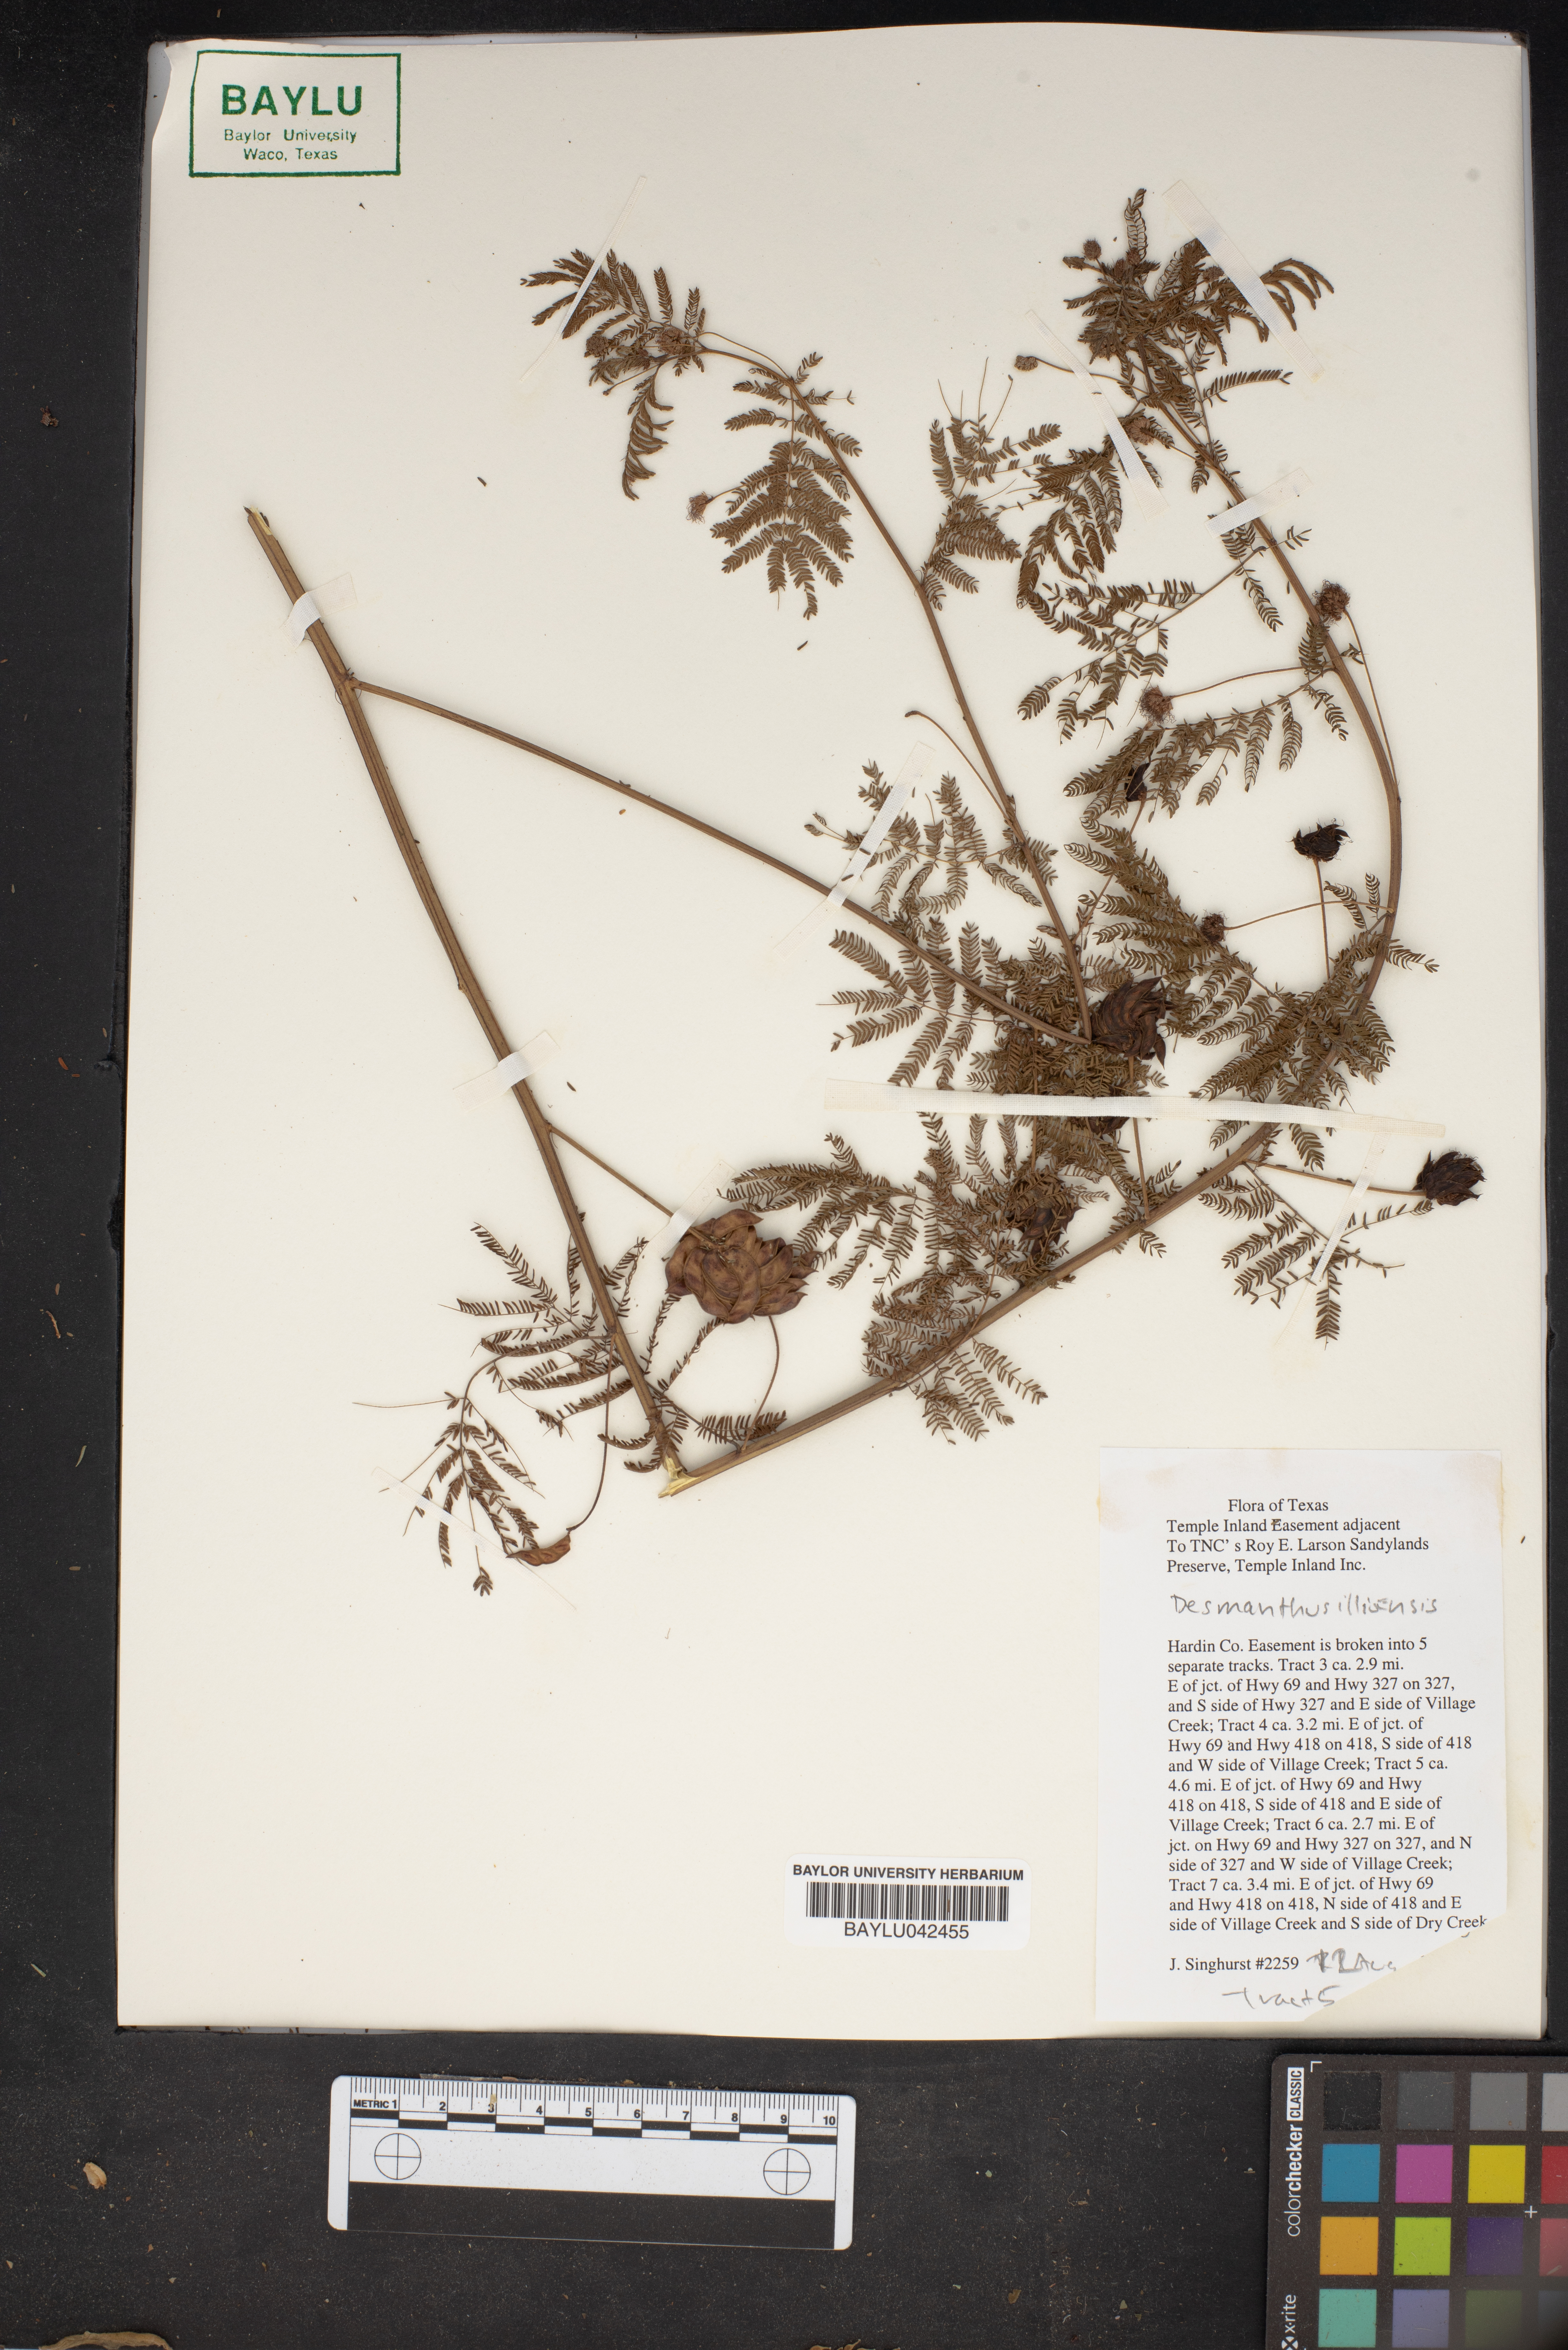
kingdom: Plantae
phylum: Tracheophyta
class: Magnoliopsida
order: Fabales
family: Fabaceae
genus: Desmanthus
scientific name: Desmanthus illinoensis
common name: Illinois bundle-flower
